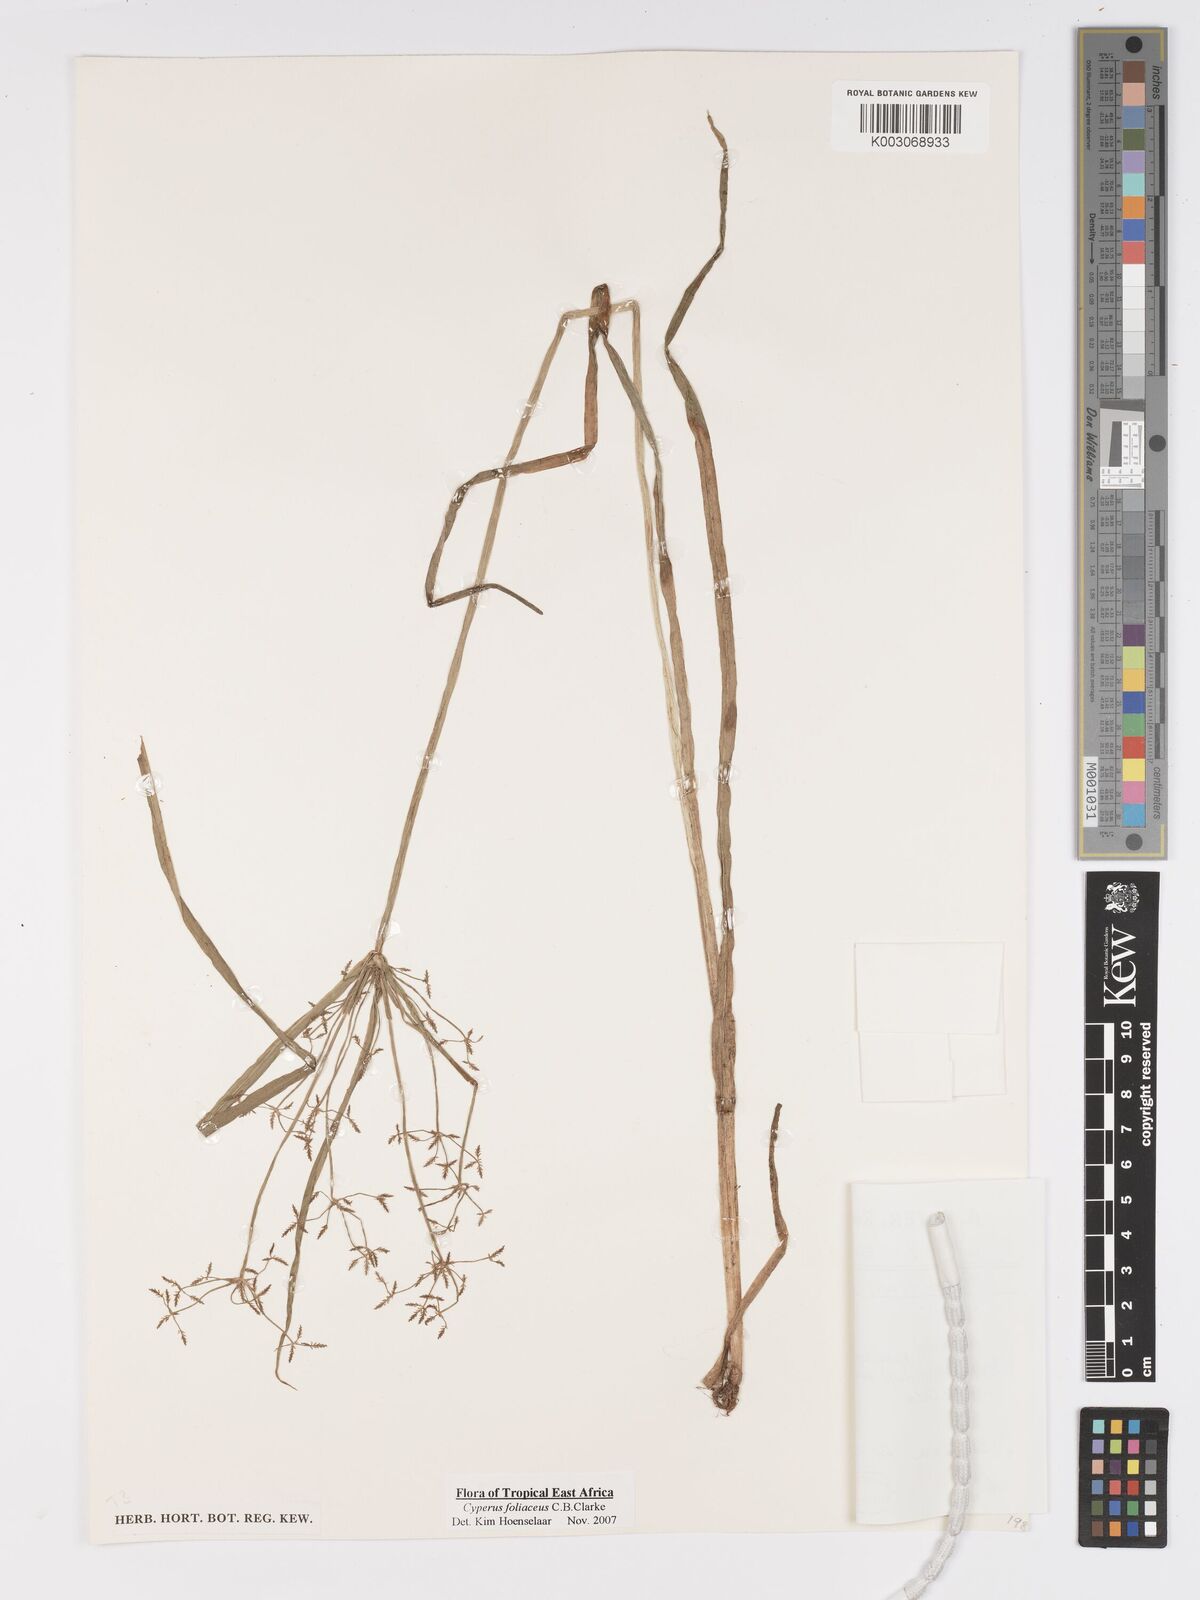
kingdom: Plantae
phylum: Tracheophyta
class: Liliopsida
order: Poales
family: Cyperaceae
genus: Cyperus
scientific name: Cyperus foliaceus
